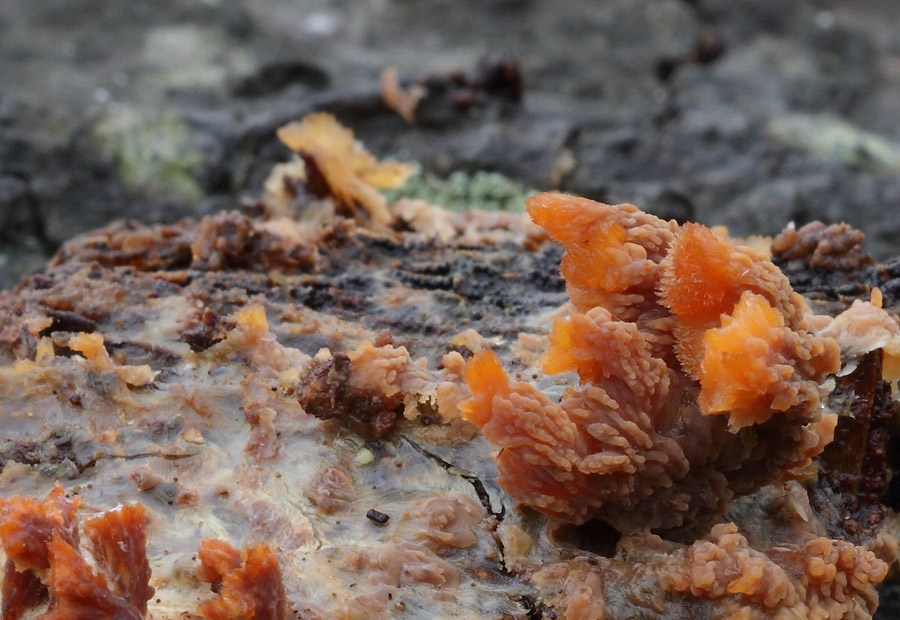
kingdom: Fungi
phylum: Basidiomycota
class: Agaricomycetes
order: Polyporales
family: Meruliaceae
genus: Phlebia
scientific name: Phlebia radiata
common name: stråle-åresvamp
